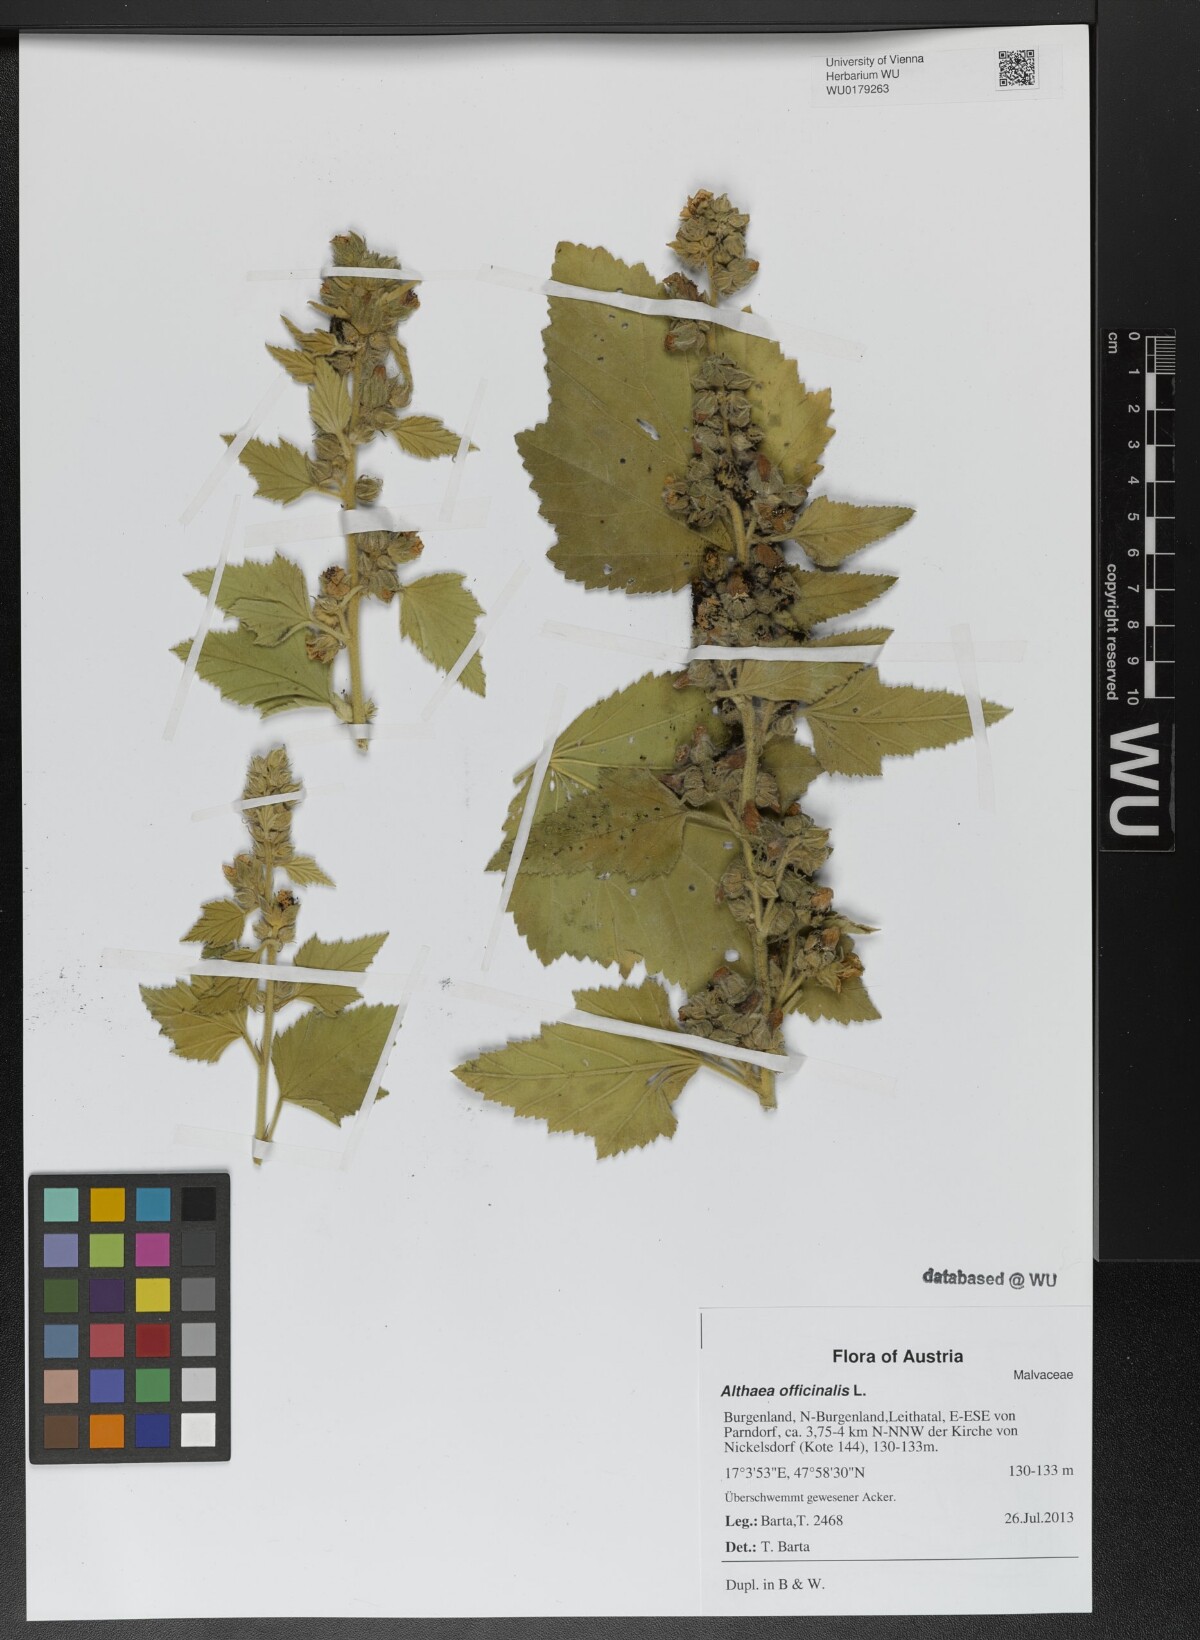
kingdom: Plantae
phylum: Tracheophyta
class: Magnoliopsida
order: Malvales
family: Malvaceae
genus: Althaea
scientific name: Althaea officinalis
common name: Marsh-mallow
